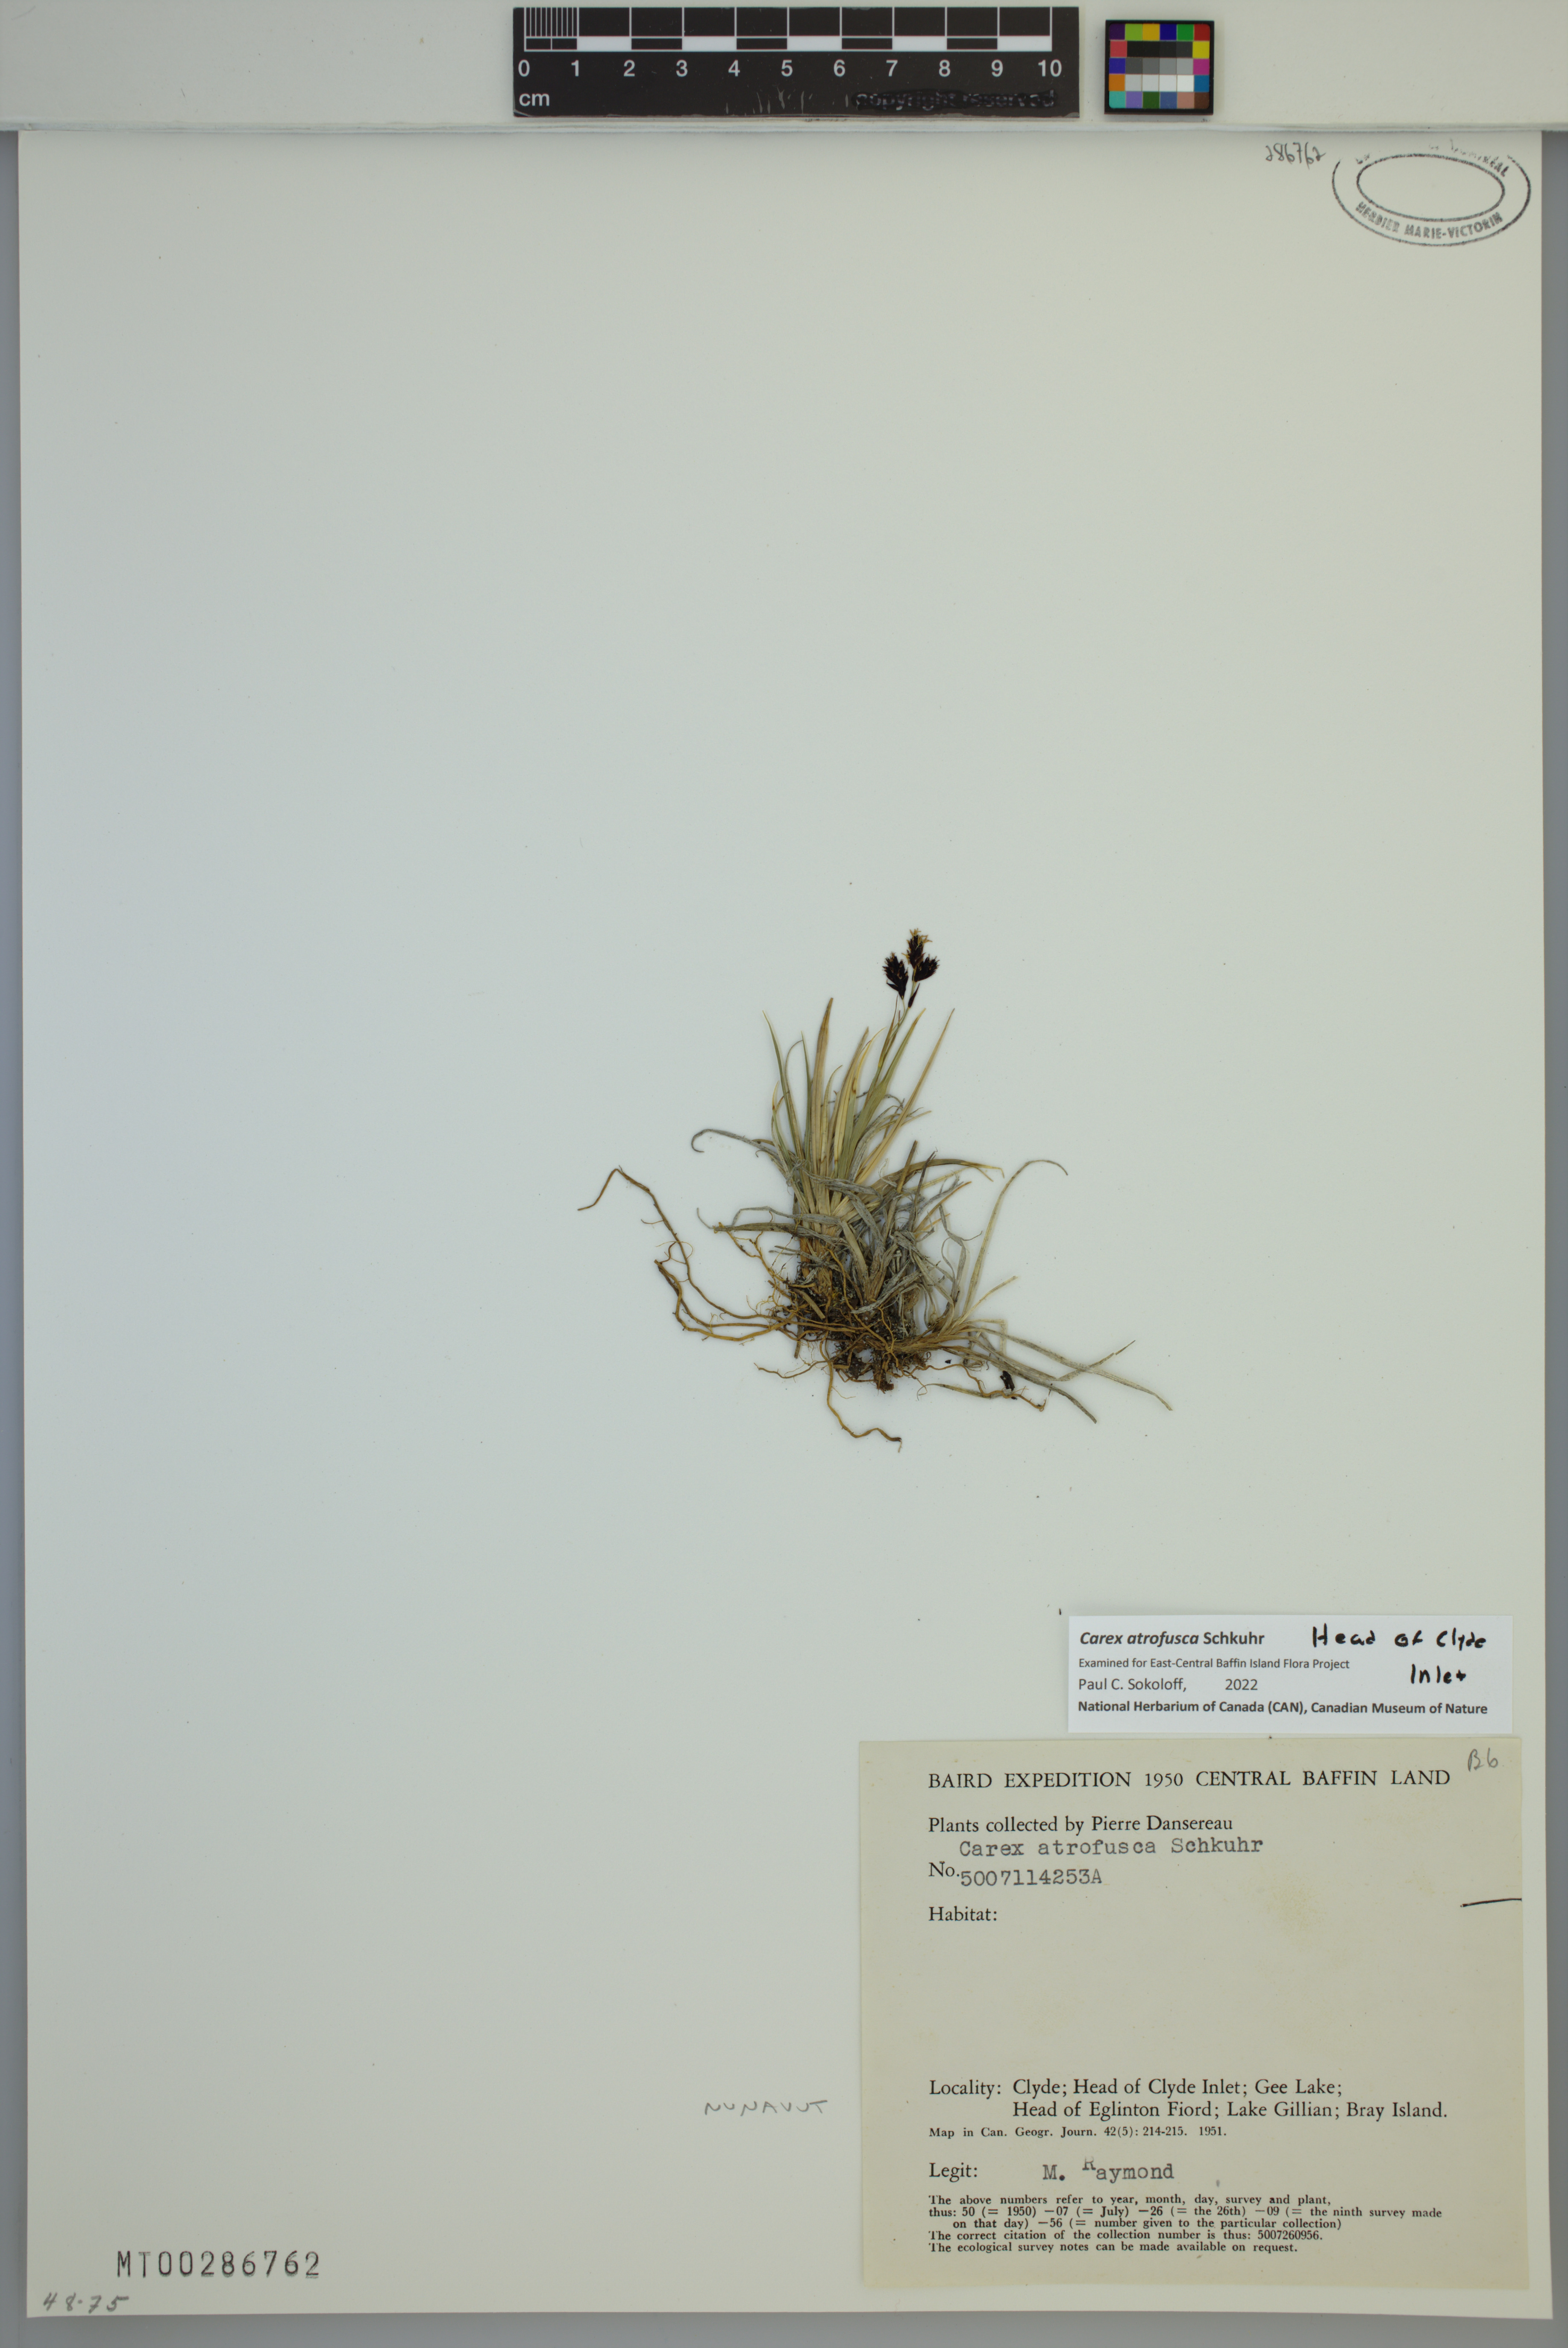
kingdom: Plantae
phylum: Tracheophyta
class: Liliopsida
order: Poales
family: Cyperaceae
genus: Carex
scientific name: Carex atrofusca
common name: Scorched alpine-sedge
